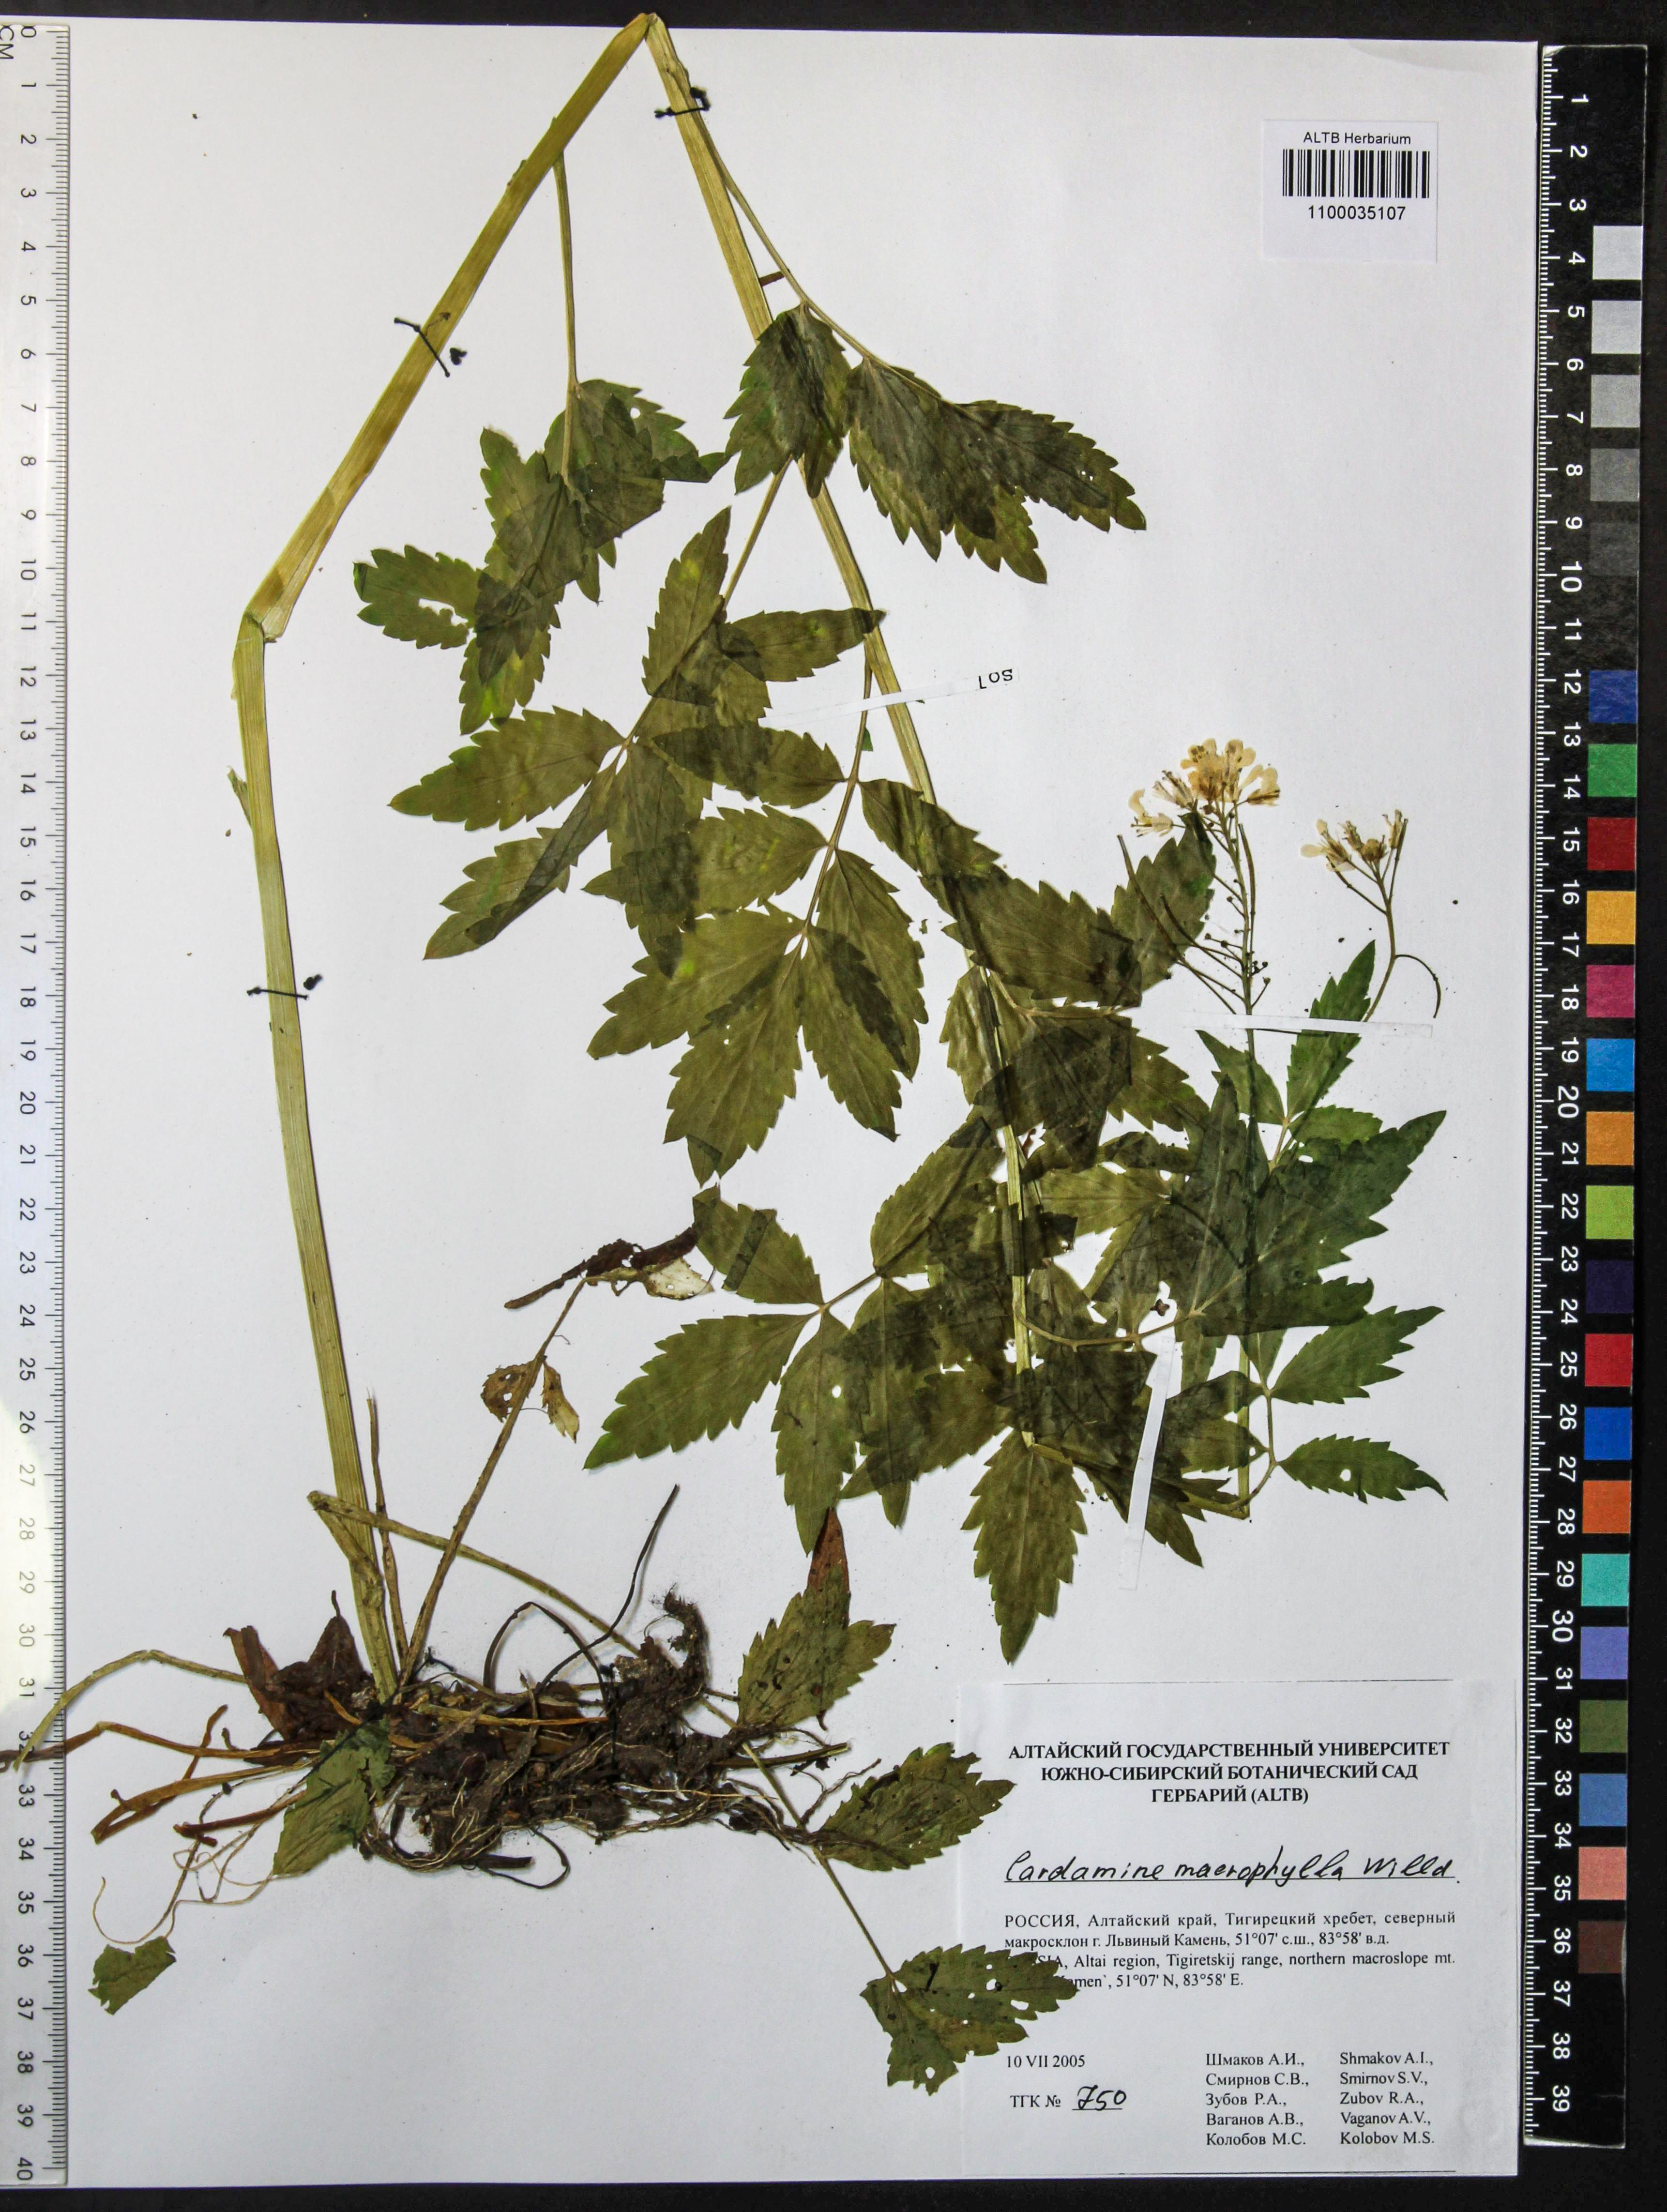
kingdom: Plantae
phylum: Tracheophyta
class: Magnoliopsida
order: Brassicales
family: Brassicaceae
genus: Cardamine
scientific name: Cardamine macrophylla
